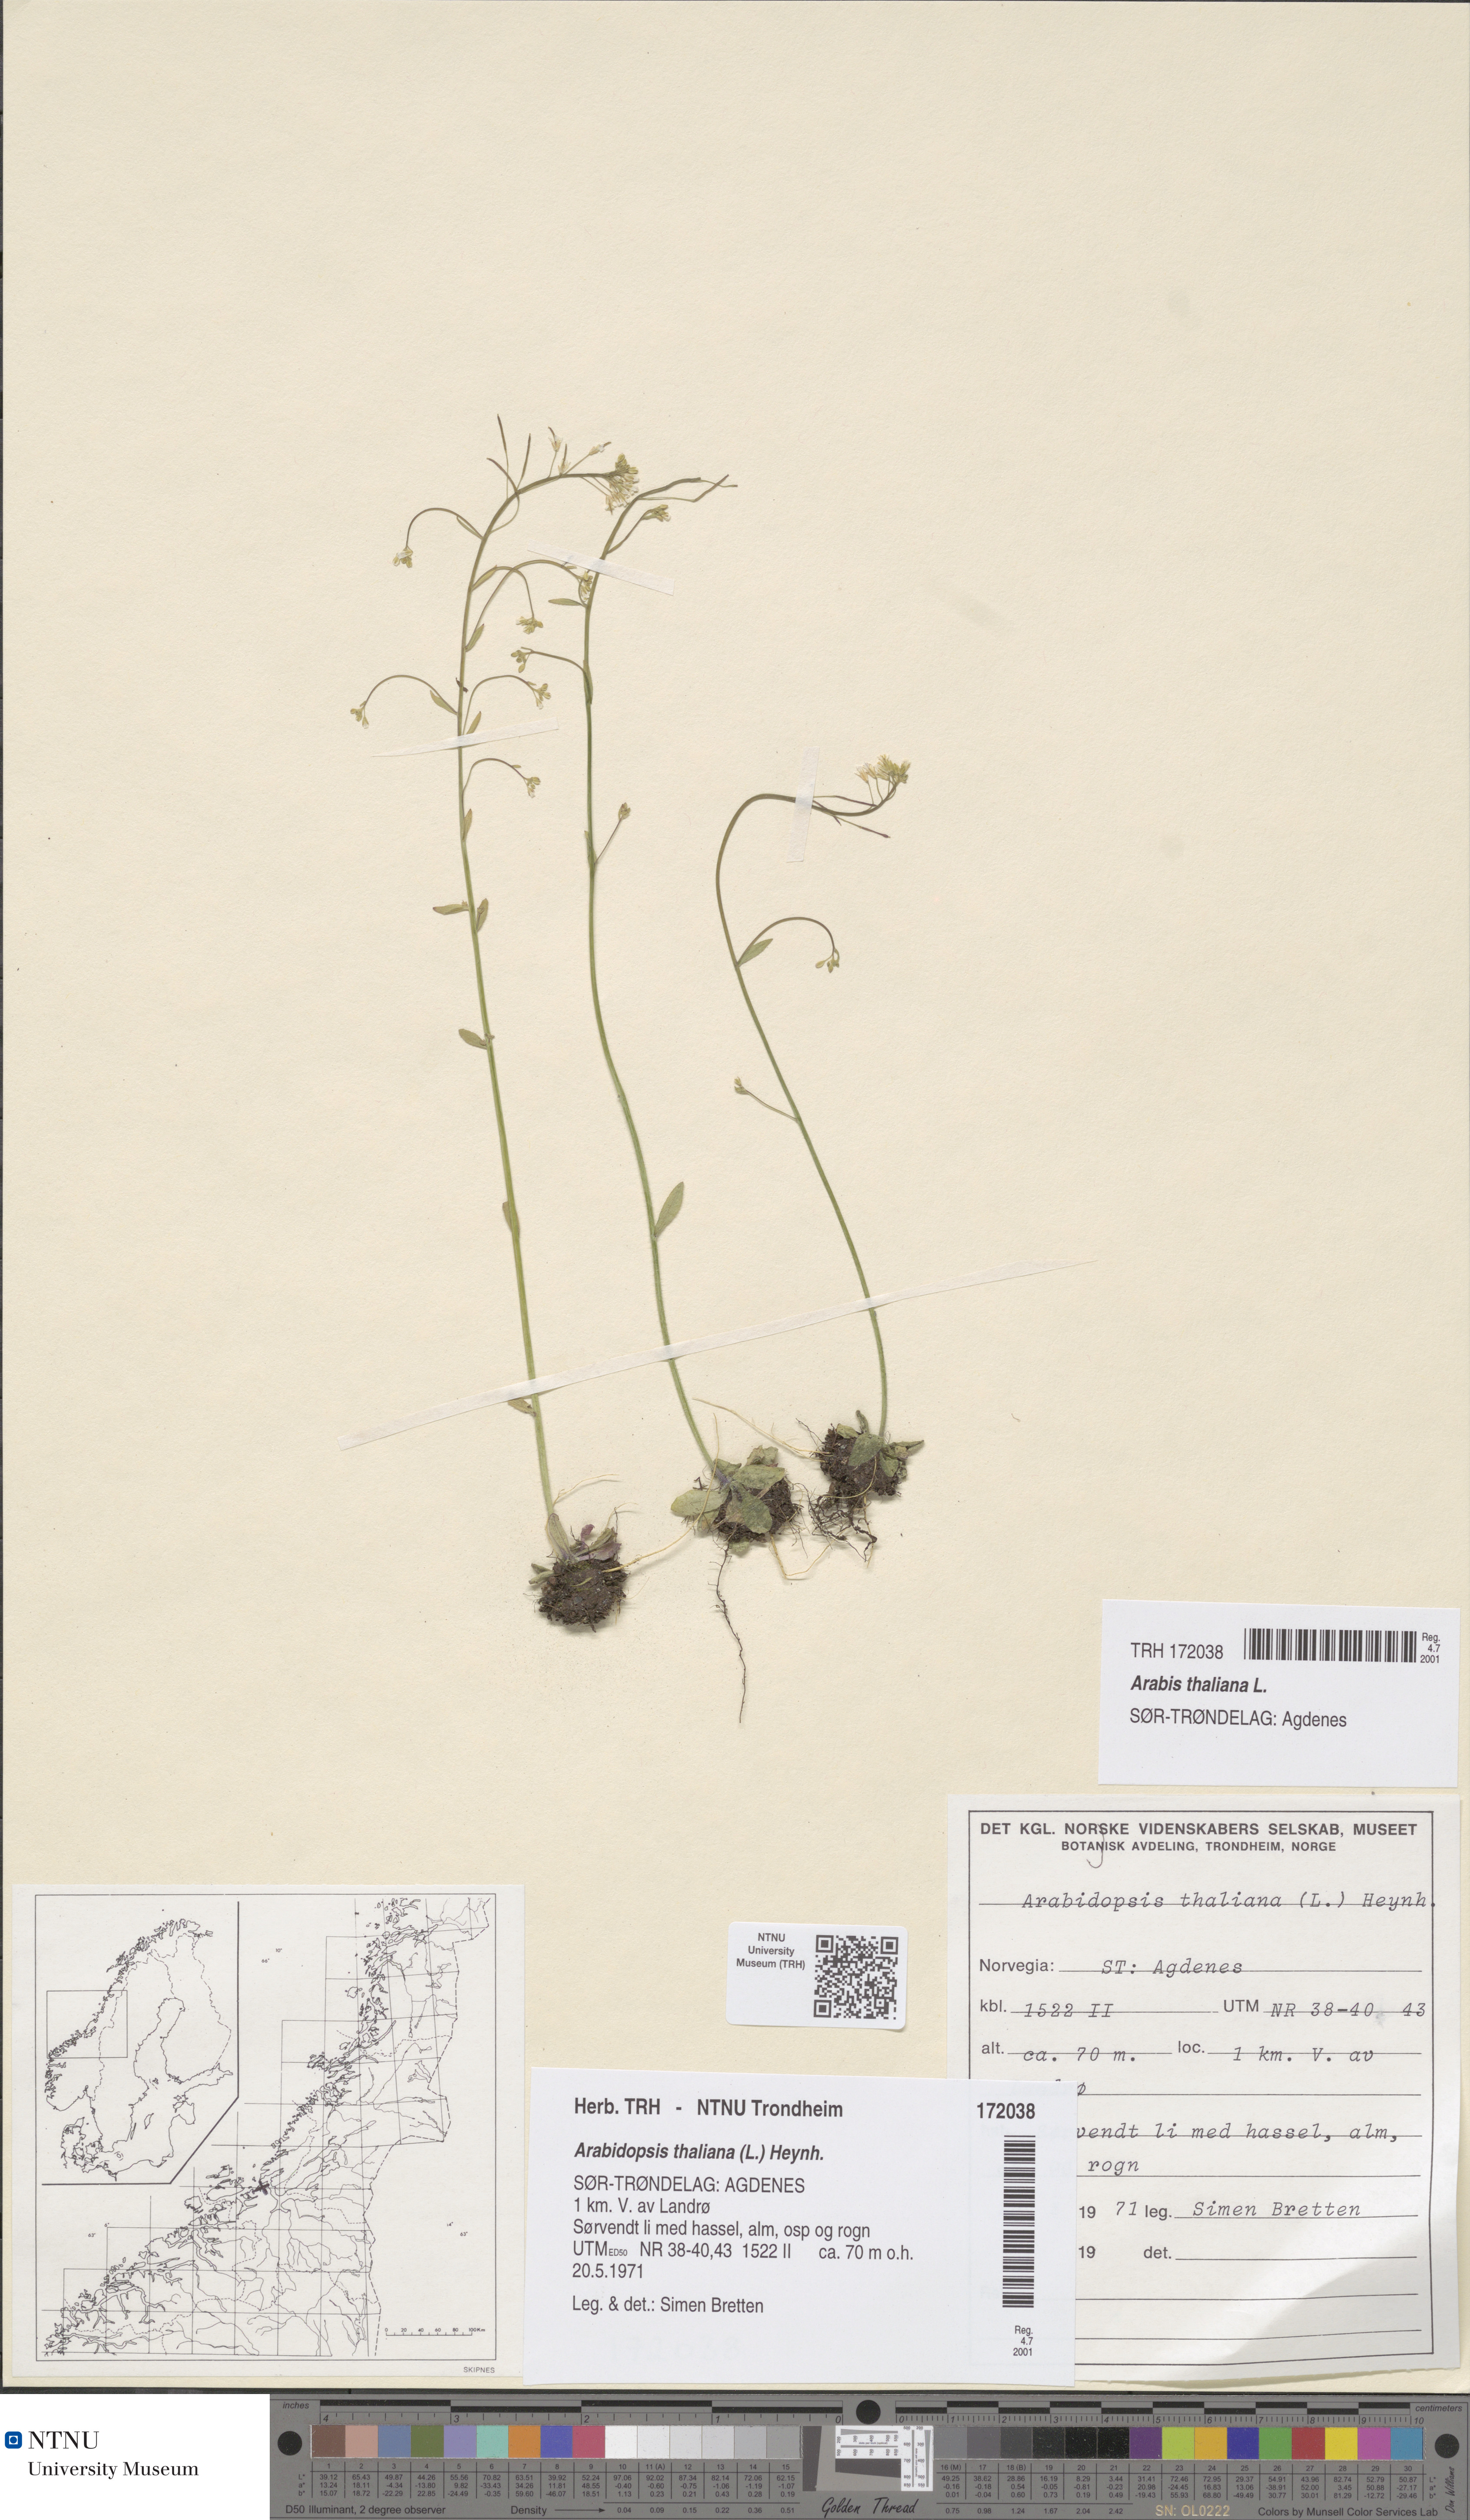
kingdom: Plantae
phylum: Tracheophyta
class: Magnoliopsida
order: Brassicales
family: Brassicaceae
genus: Arabidopsis
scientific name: Arabidopsis thaliana
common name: Thale cress
